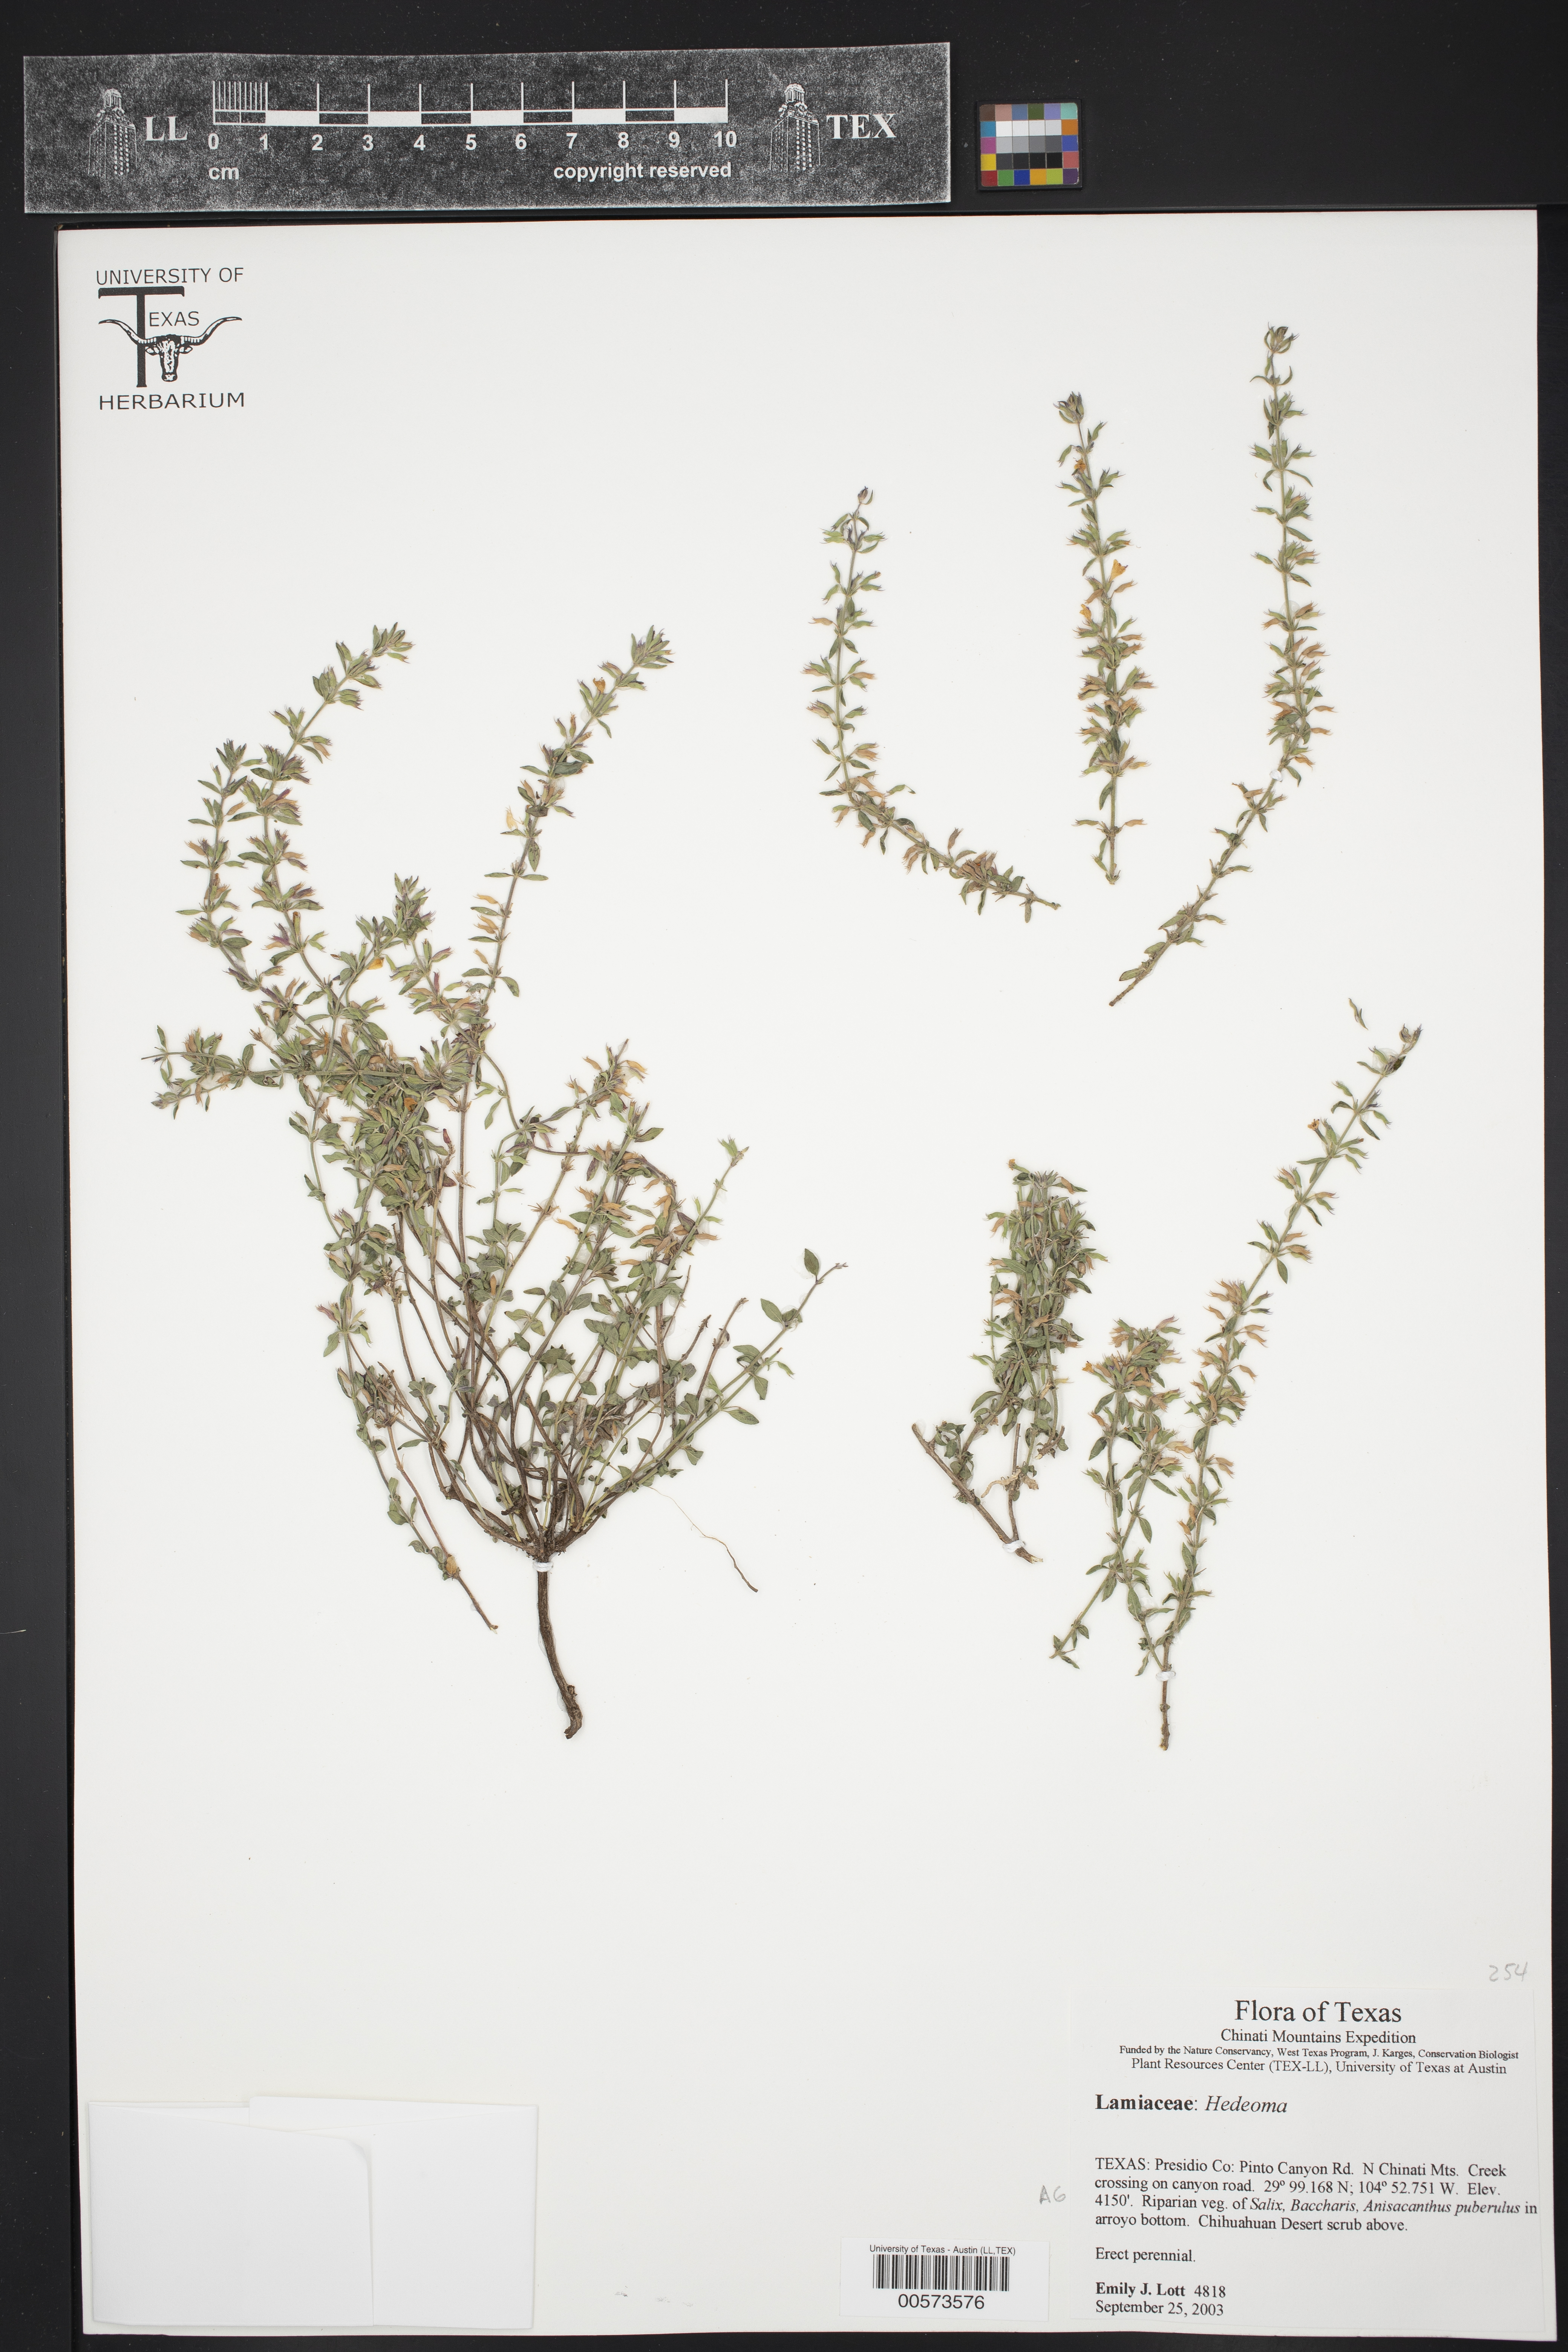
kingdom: Plantae
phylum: Tracheophyta
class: Magnoliopsida
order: Lamiales
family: Lamiaceae
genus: Hedeoma
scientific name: Hedeoma
